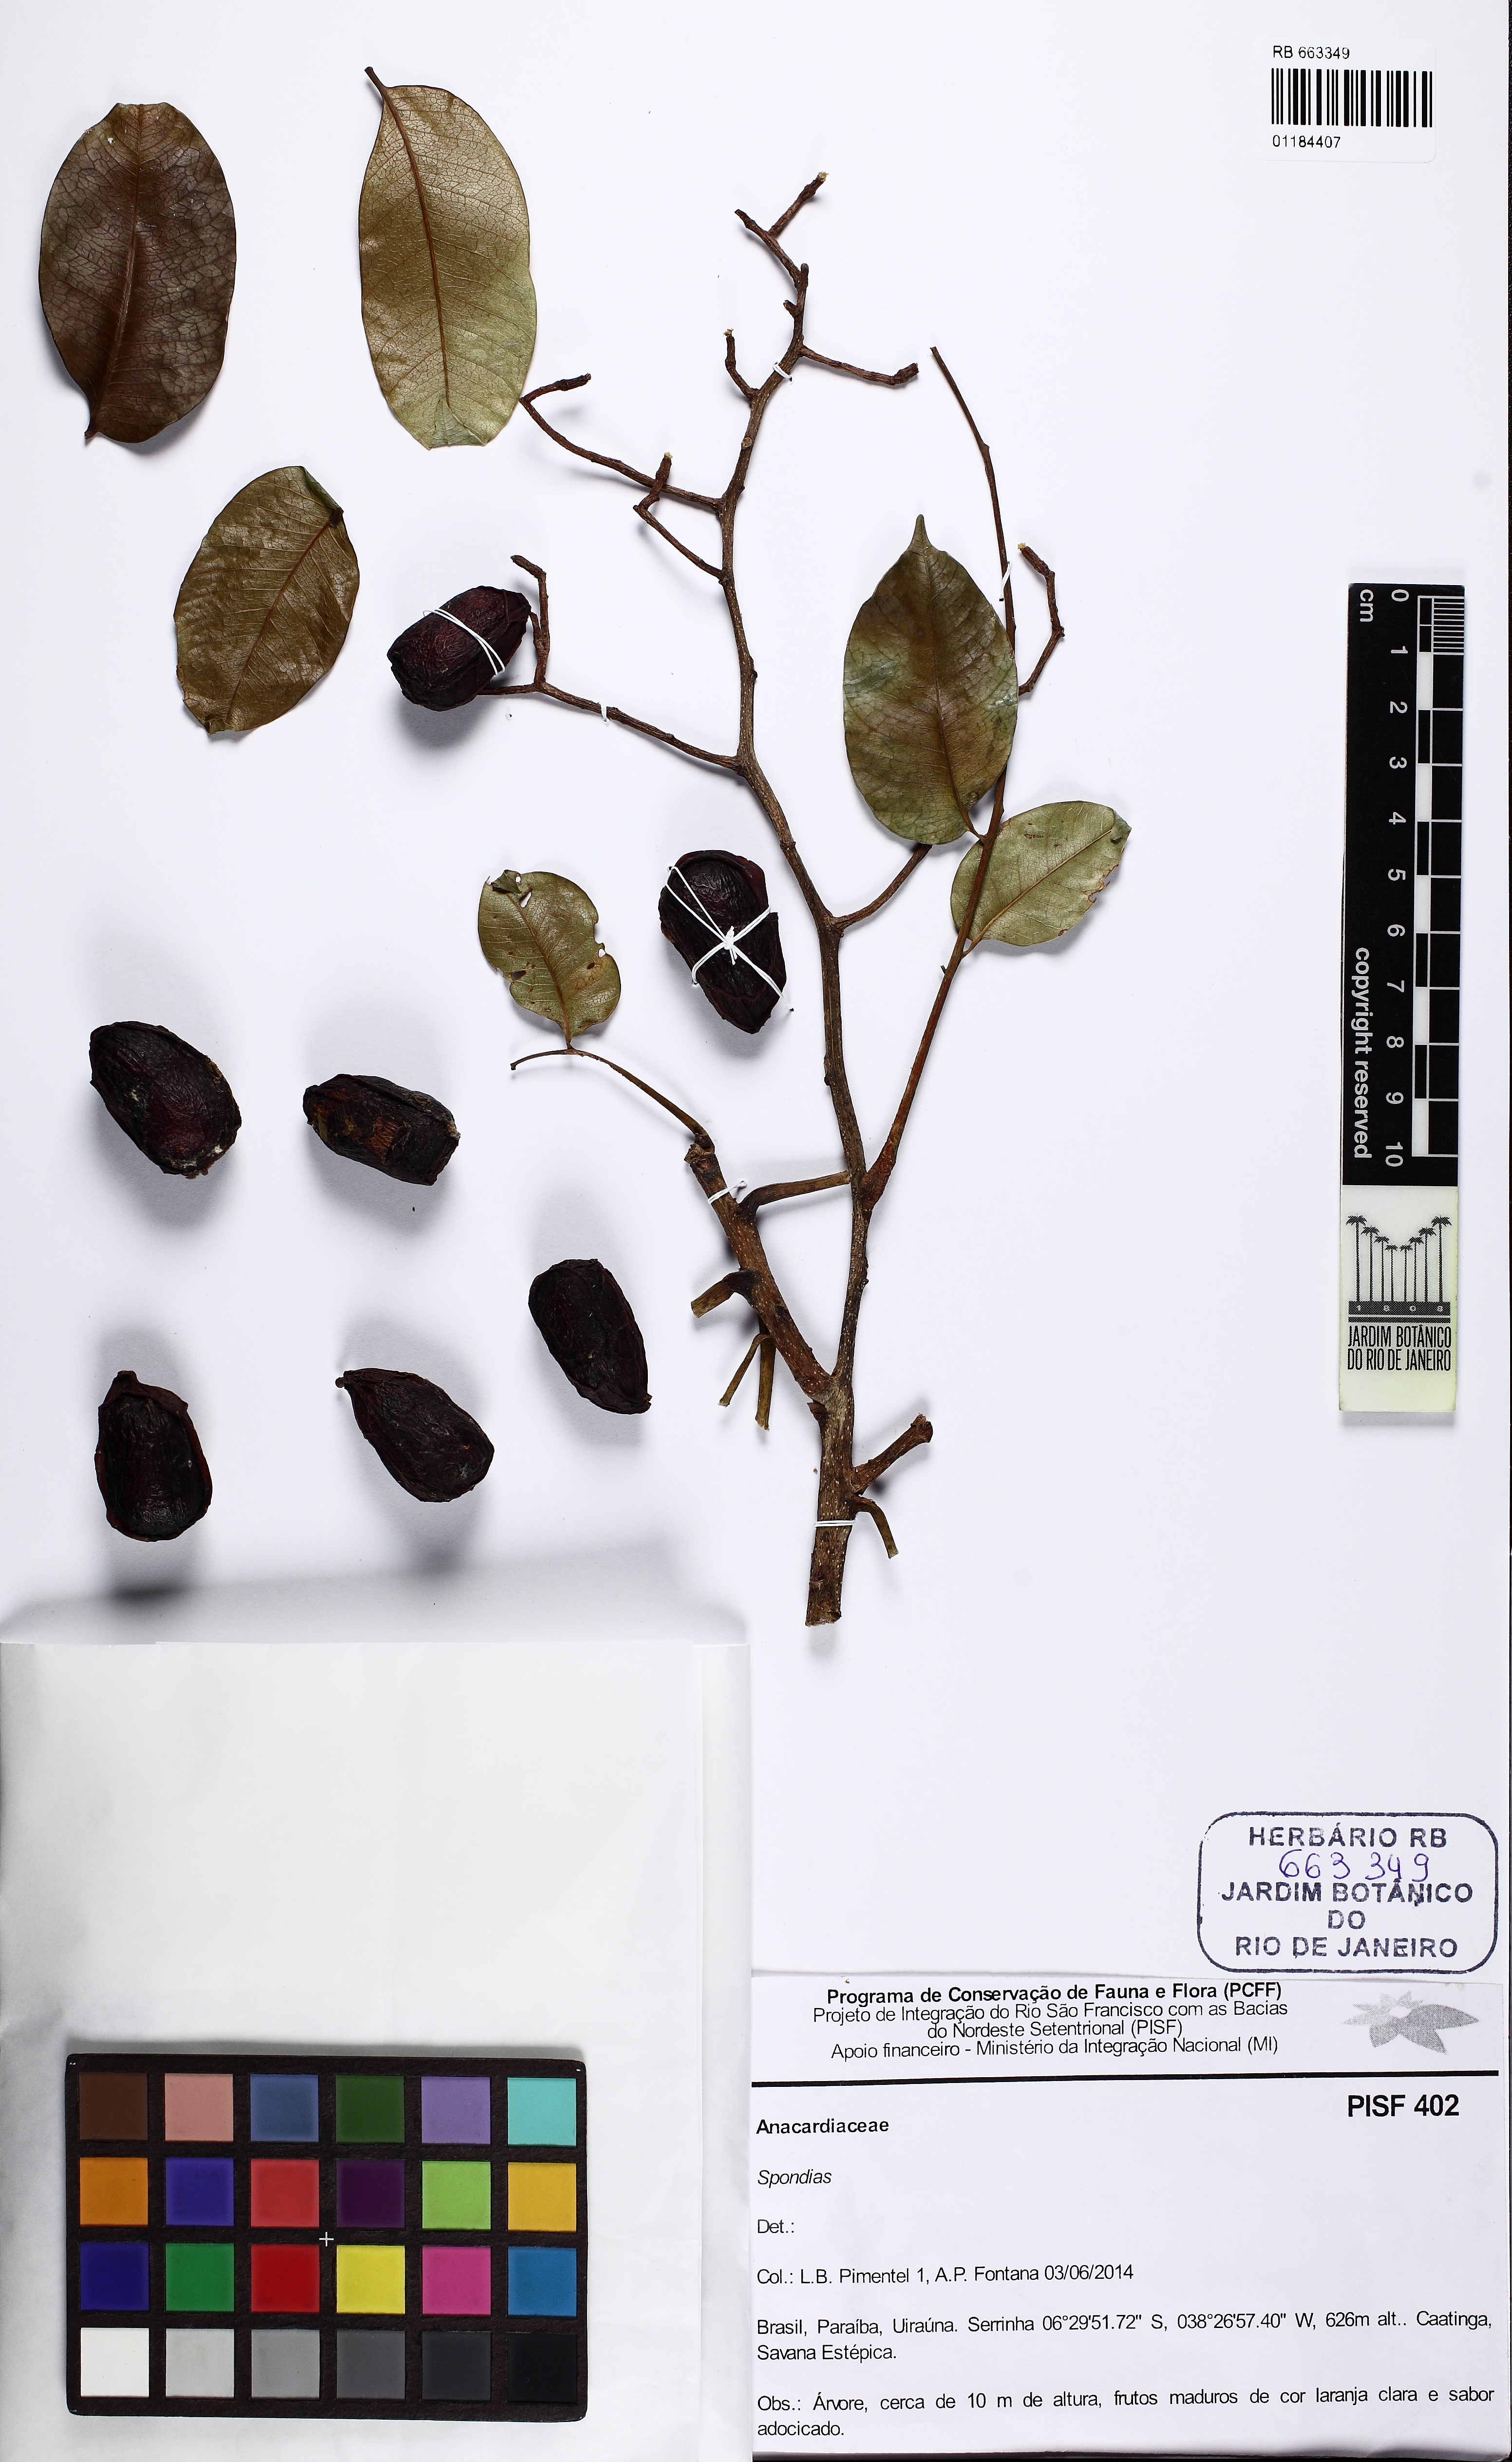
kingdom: Plantae
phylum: Tracheophyta
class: Magnoliopsida
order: Sapindales
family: Anacardiaceae
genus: Spondias
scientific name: Spondias
